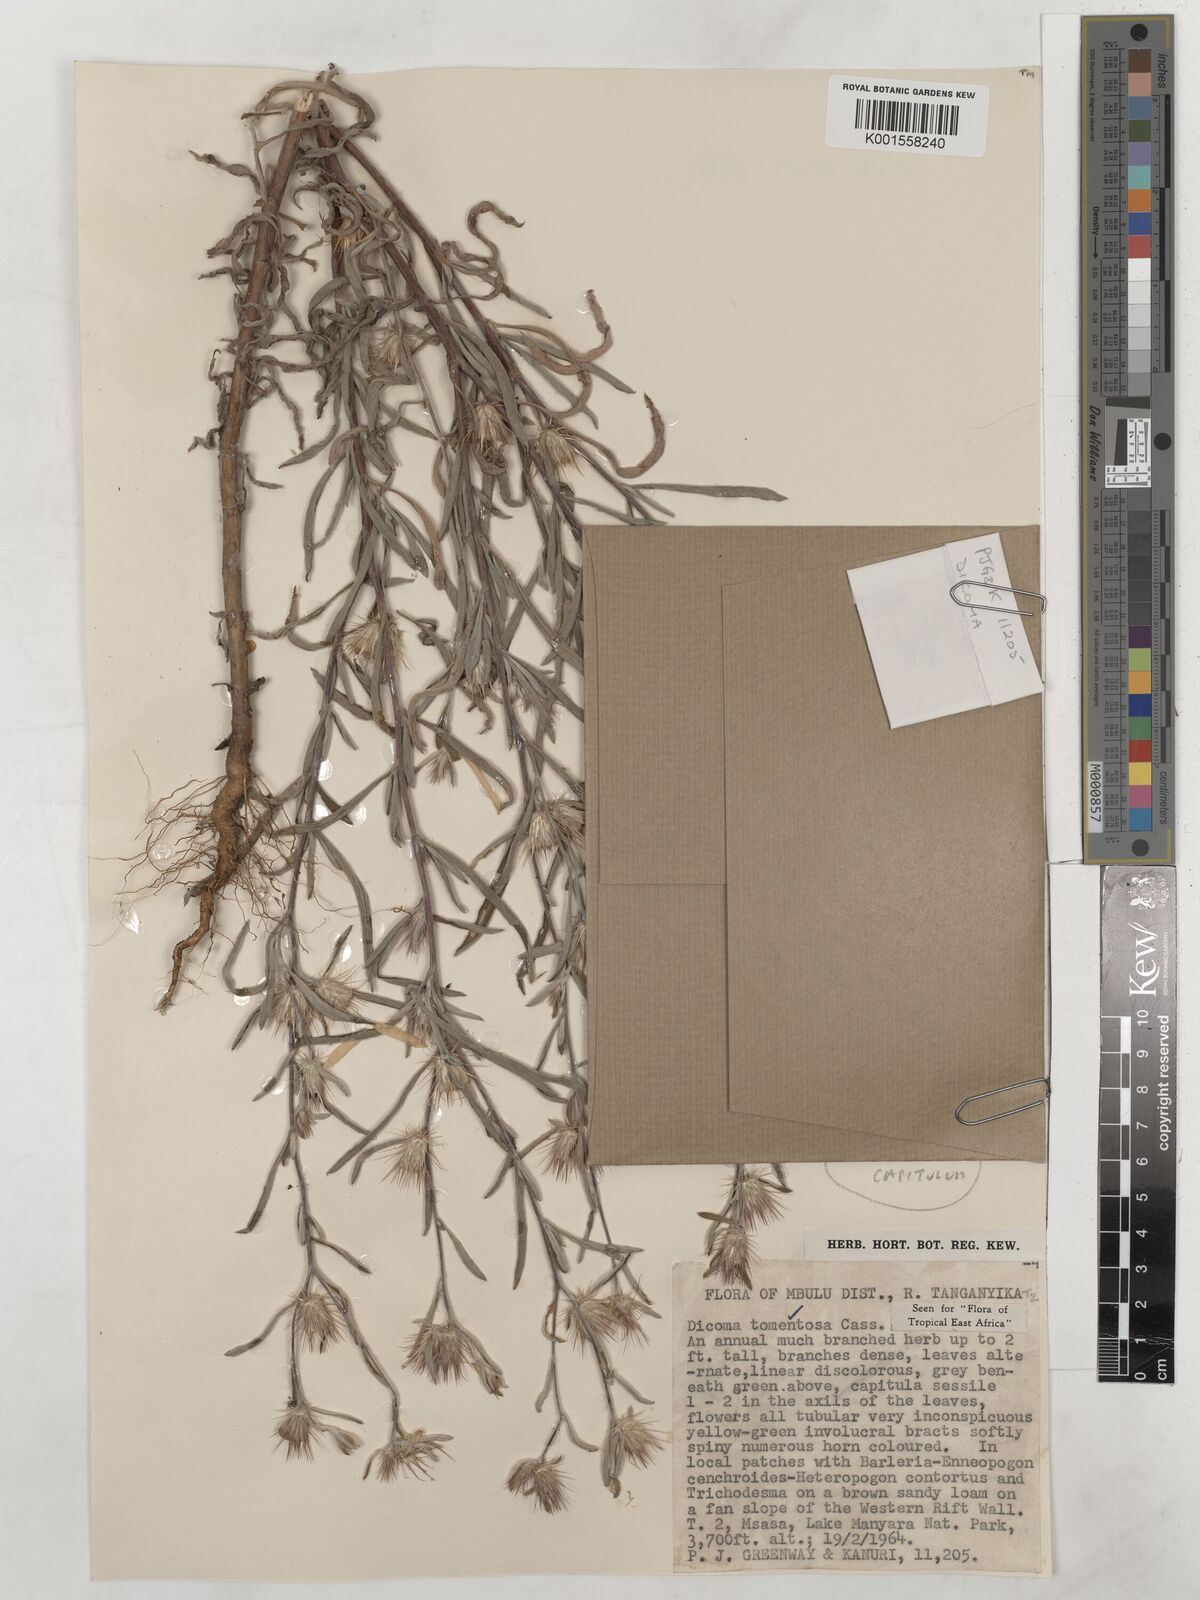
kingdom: Plantae
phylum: Tracheophyta
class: Magnoliopsida
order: Asterales
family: Asteraceae
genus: Dicoma
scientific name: Dicoma tomentosa
